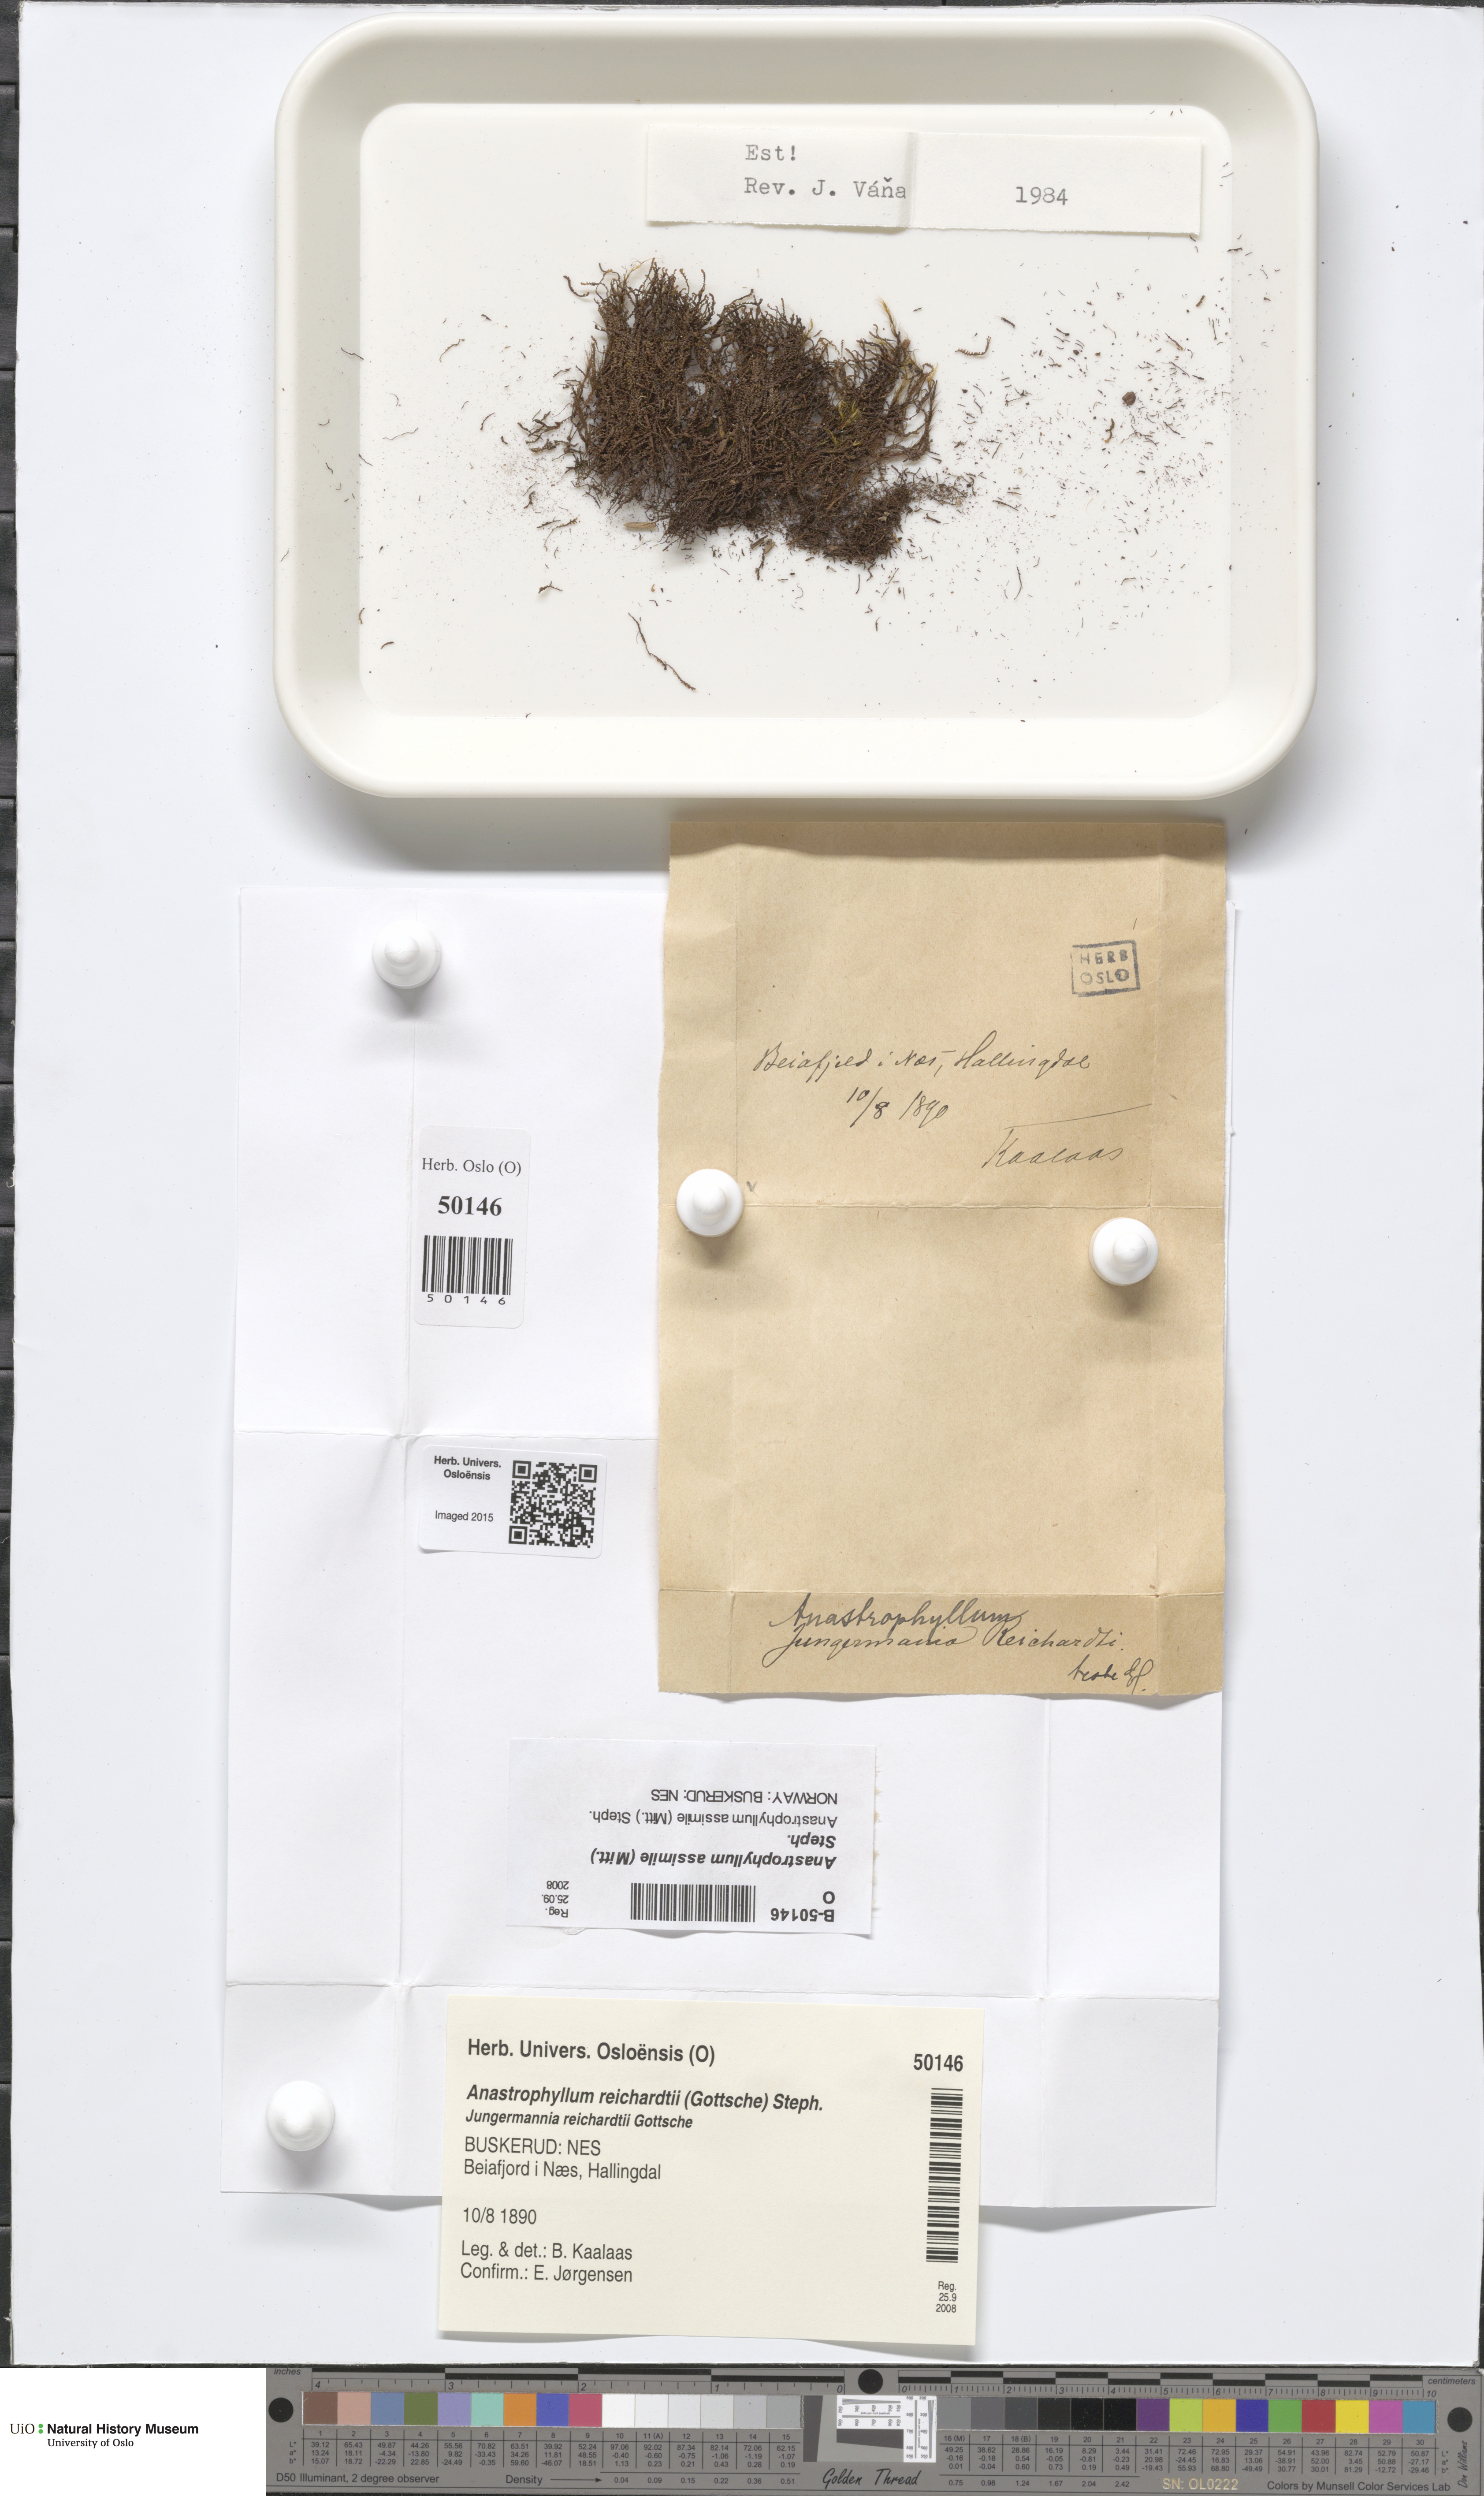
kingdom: Plantae
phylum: Marchantiophyta
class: Jungermanniopsida
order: Jungermanniales
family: Anastrophyllaceae
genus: Anastrophyllum
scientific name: Anastrophyllum assimile
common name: Similar notchwort
